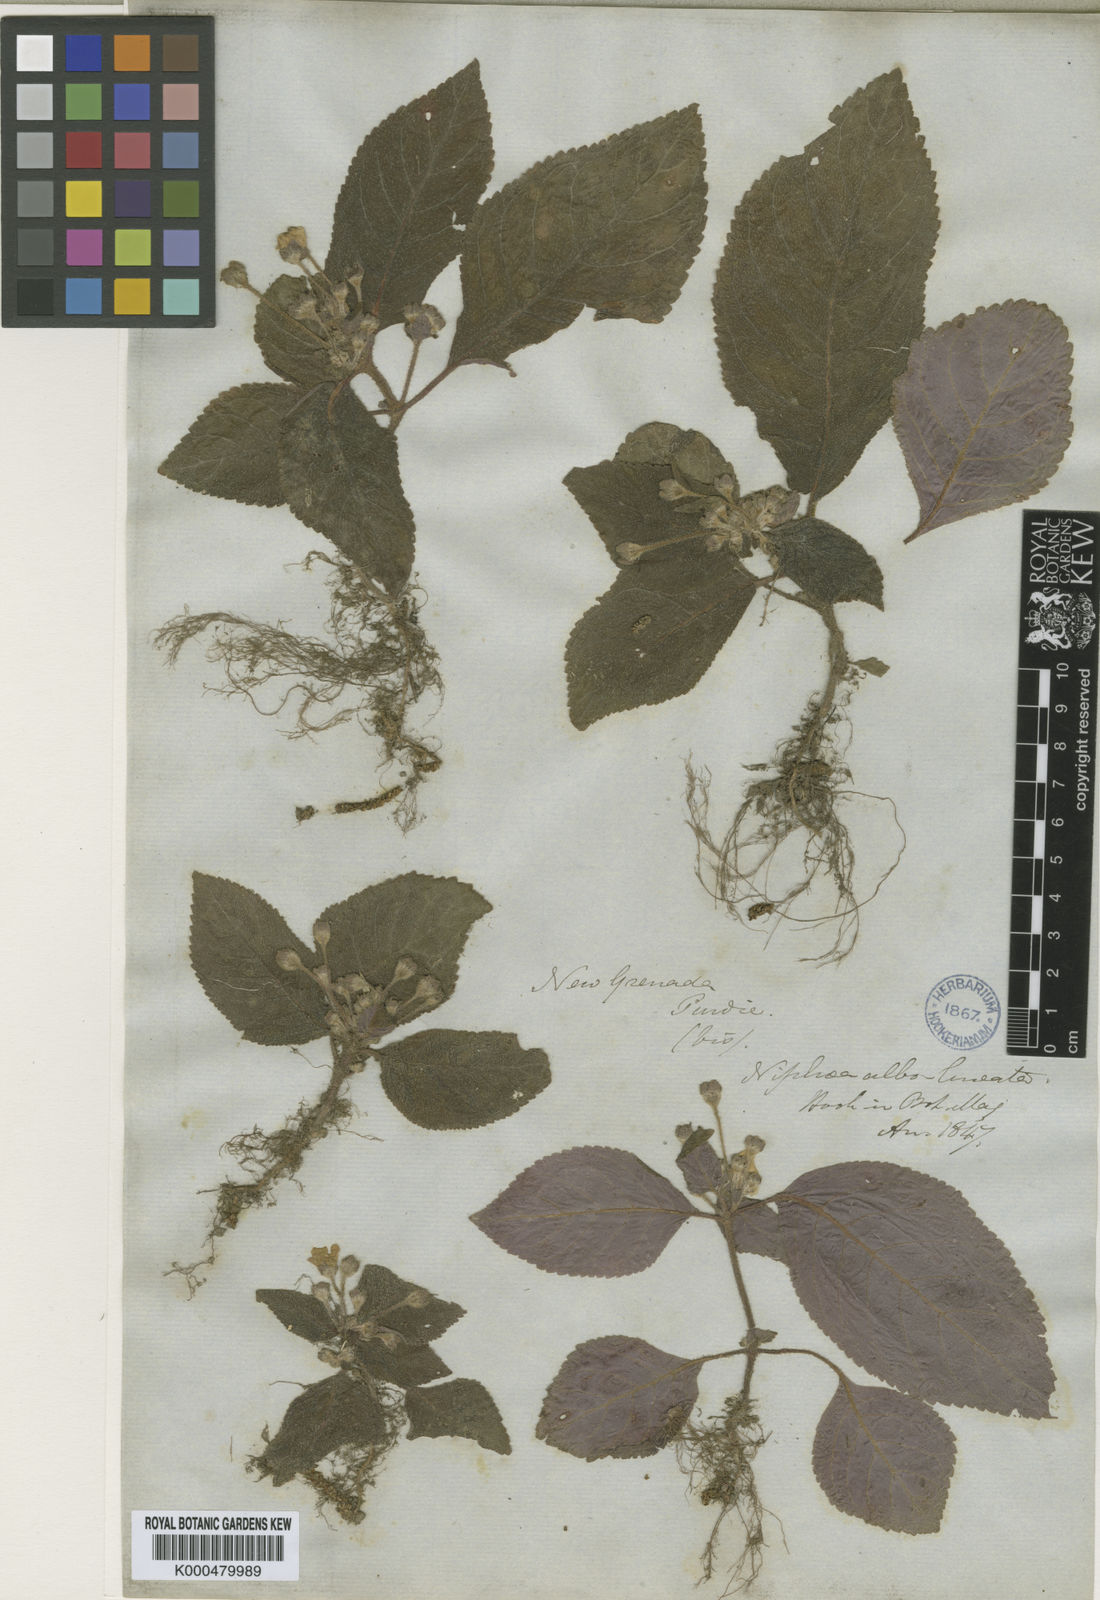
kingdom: Plantae
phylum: Tracheophyta
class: Magnoliopsida
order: Lamiales
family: Gesneriaceae
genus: Phinaea
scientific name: Phinaea albolineata
